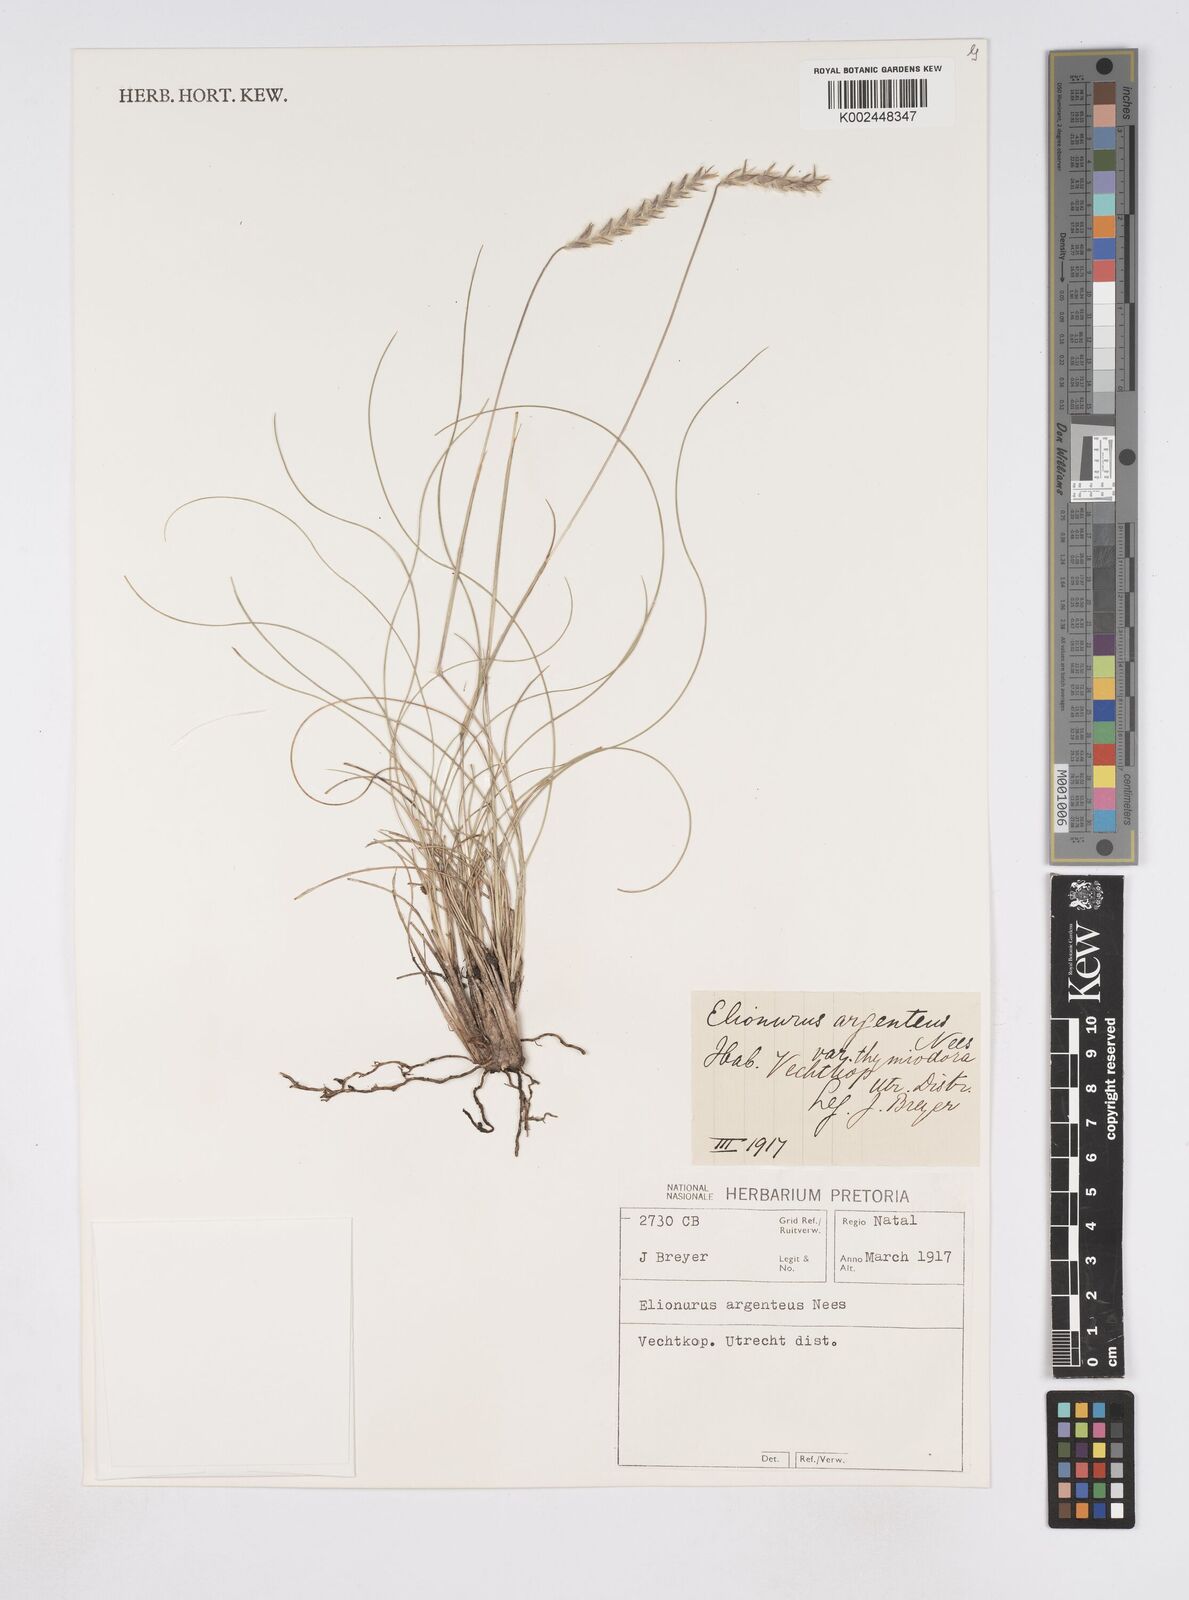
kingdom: Plantae
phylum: Tracheophyta
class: Liliopsida
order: Poales
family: Poaceae
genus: Elionurus
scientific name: Elionurus muticus
